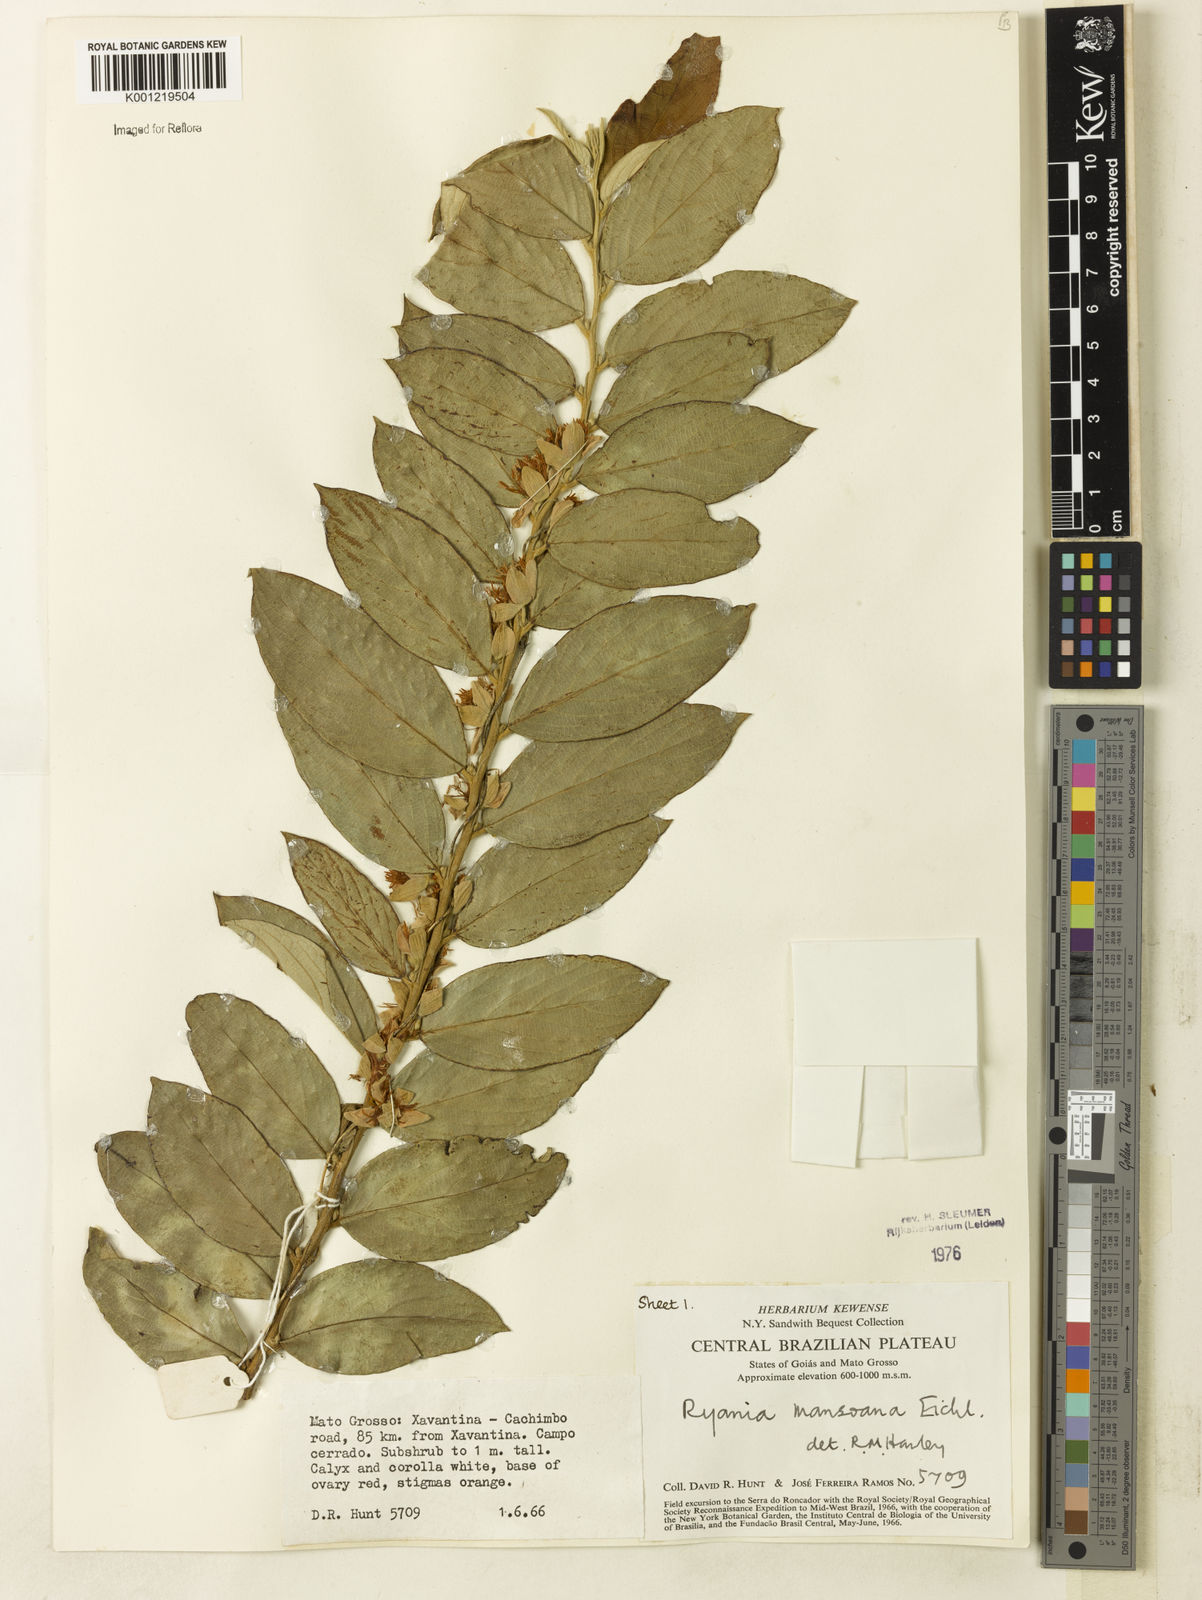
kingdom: Plantae
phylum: Tracheophyta
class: Magnoliopsida
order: Malpighiales
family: Salicaceae
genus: Ryania
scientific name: Ryania mansoana
